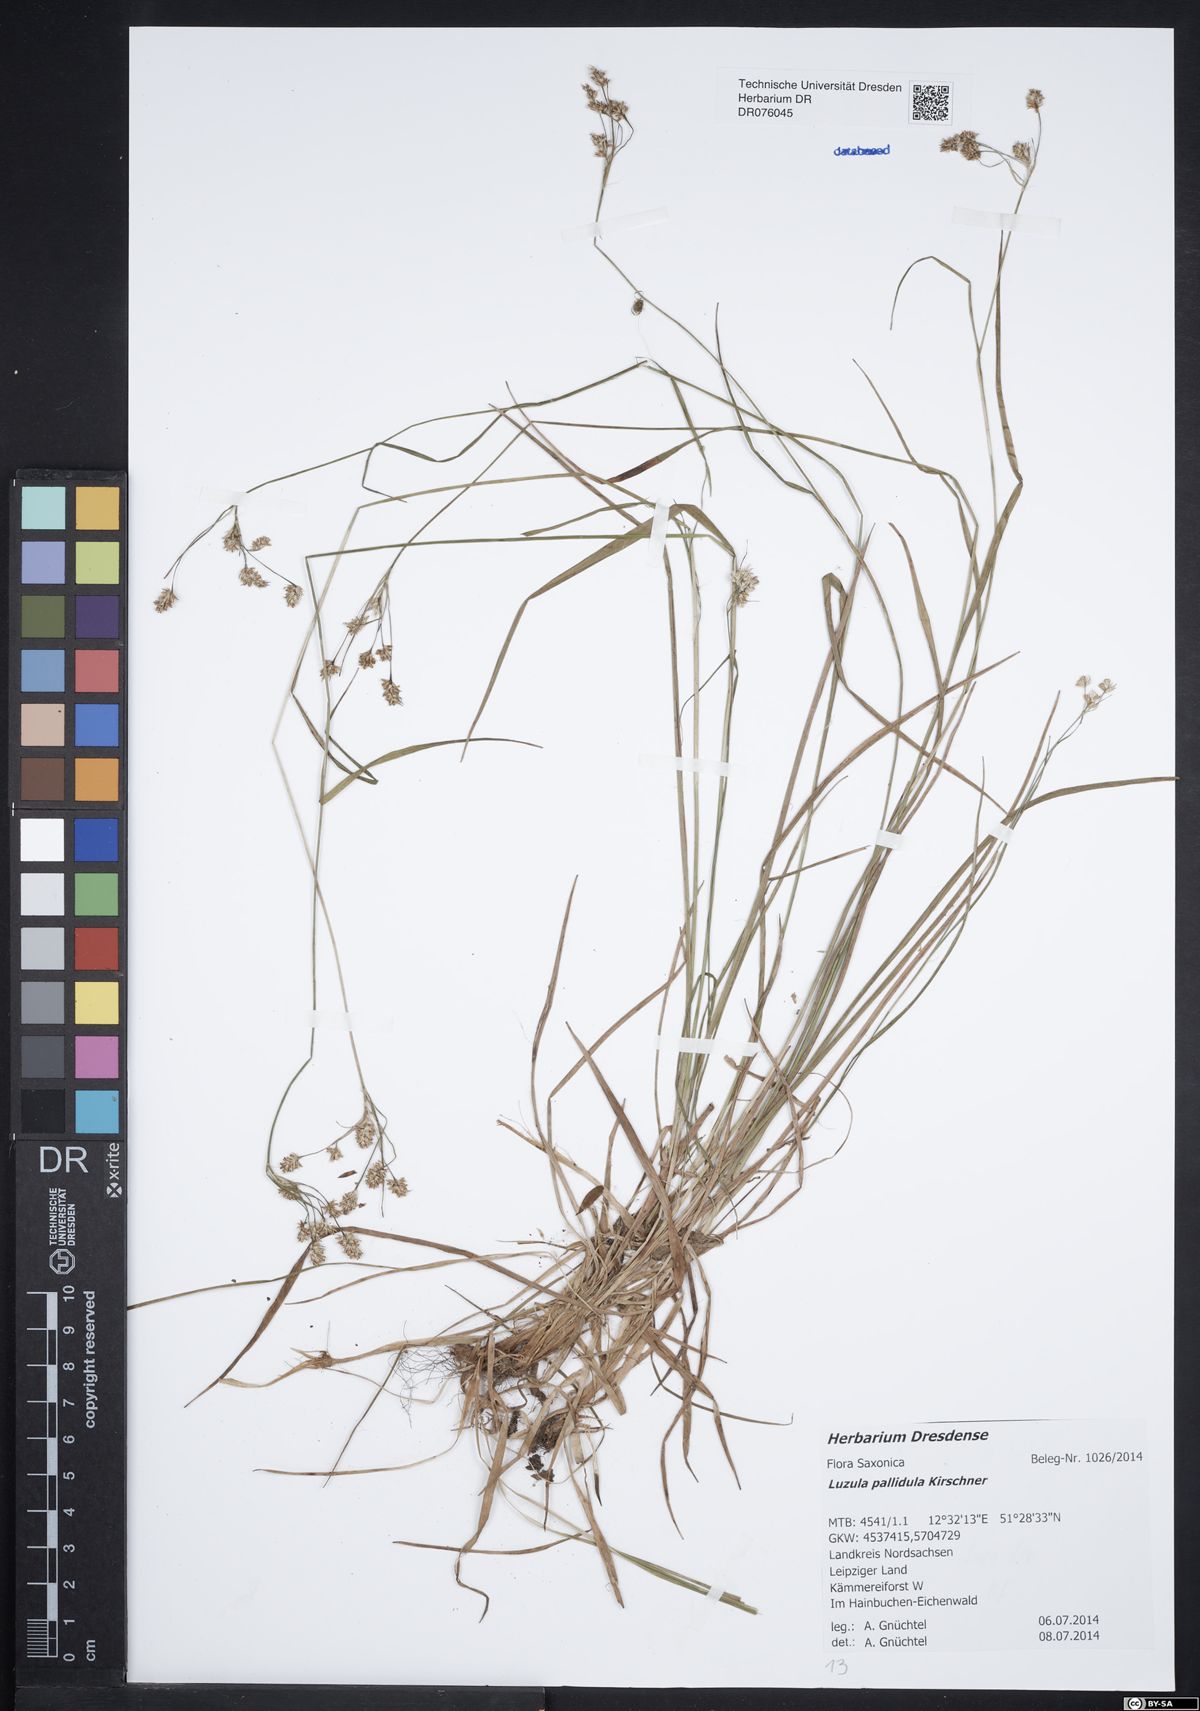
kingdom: Plantae
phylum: Tracheophyta
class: Liliopsida
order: Poales
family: Juncaceae
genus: Luzula
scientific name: Luzula pallescens
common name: Fen wood-rush
